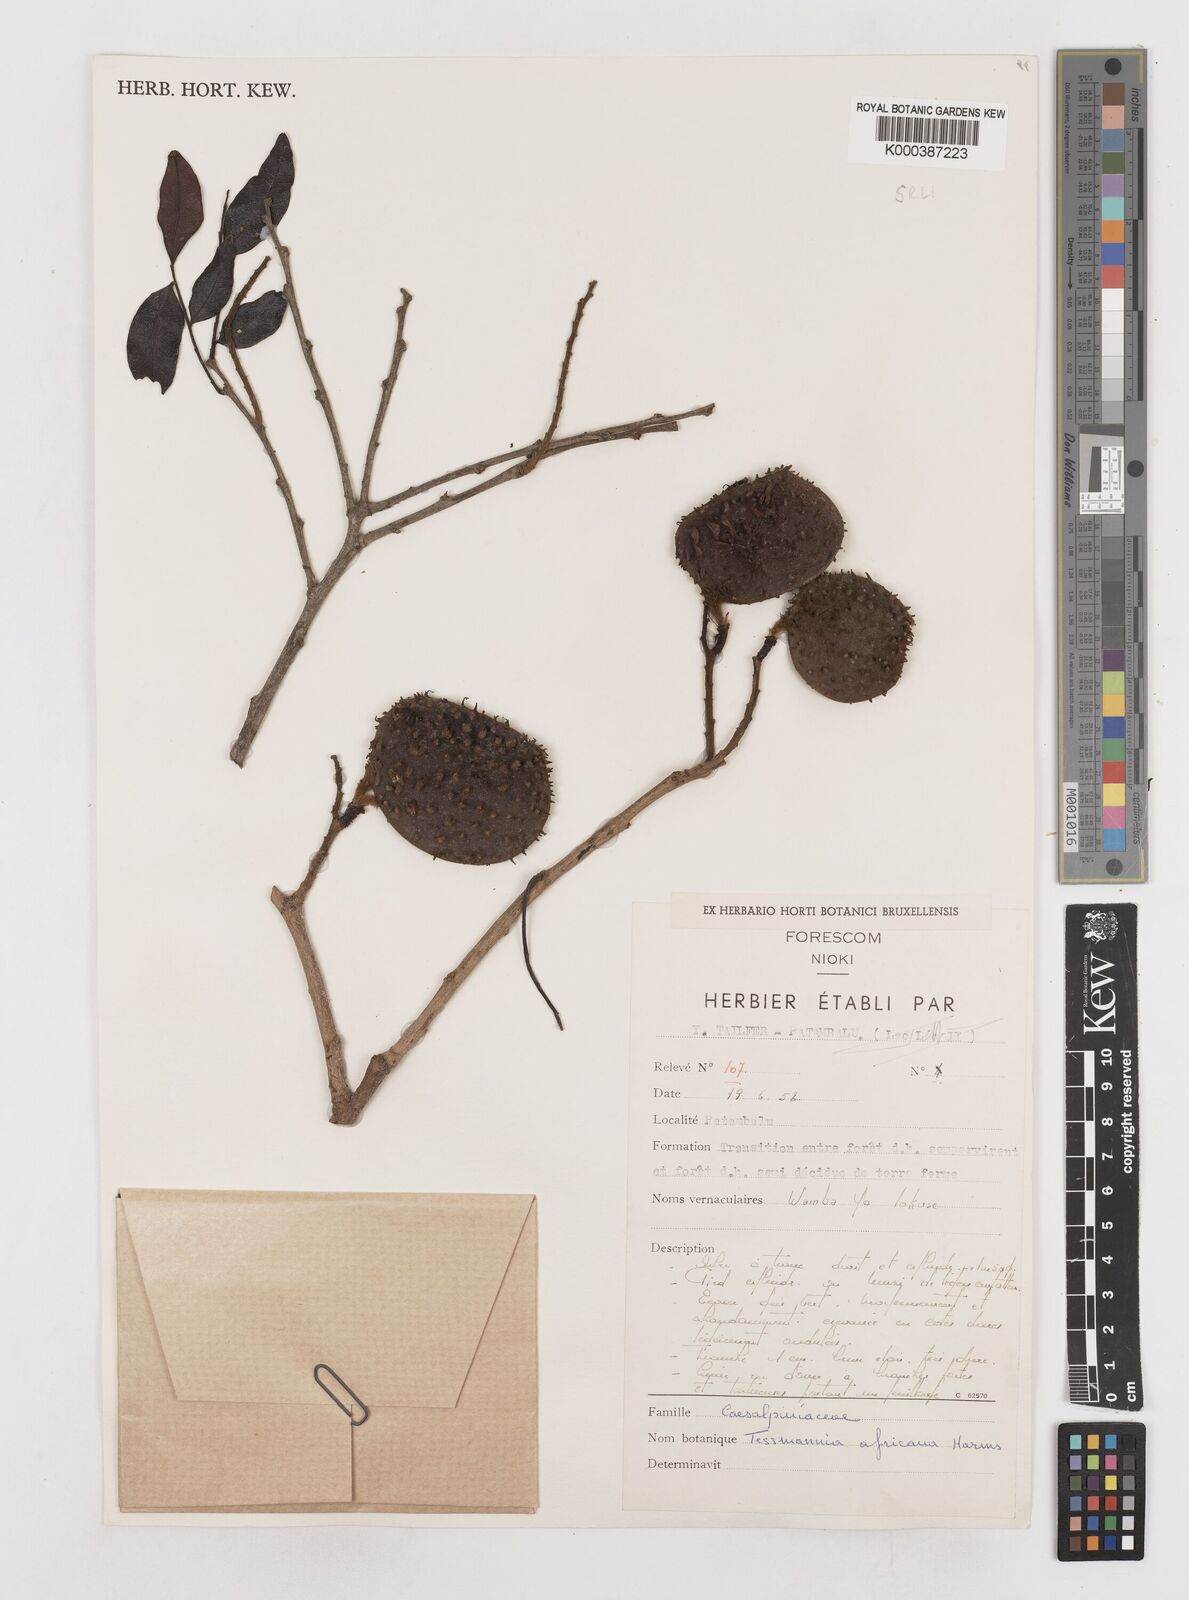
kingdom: Plantae
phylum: Tracheophyta
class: Magnoliopsida
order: Fabales
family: Fabaceae
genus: Tessmannia
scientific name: Tessmannia africana
